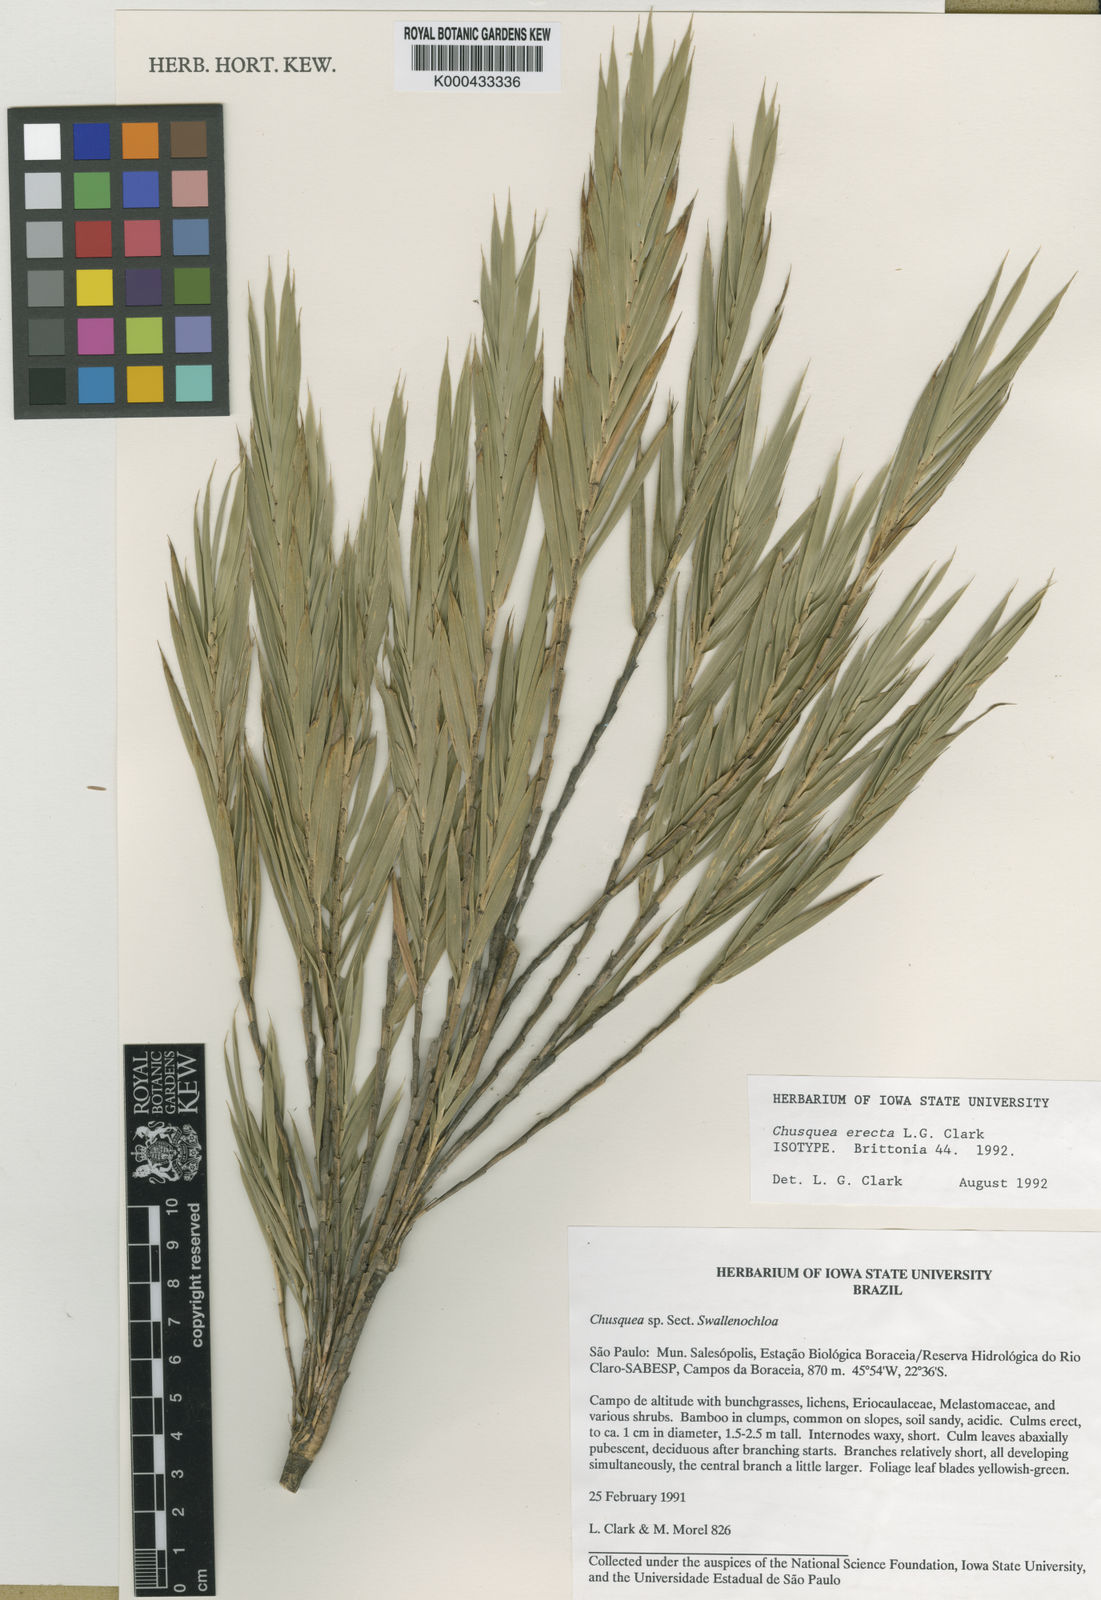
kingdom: Plantae
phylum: Tracheophyta
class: Liliopsida
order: Poales
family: Poaceae
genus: Chusquea
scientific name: Chusquea erecta
